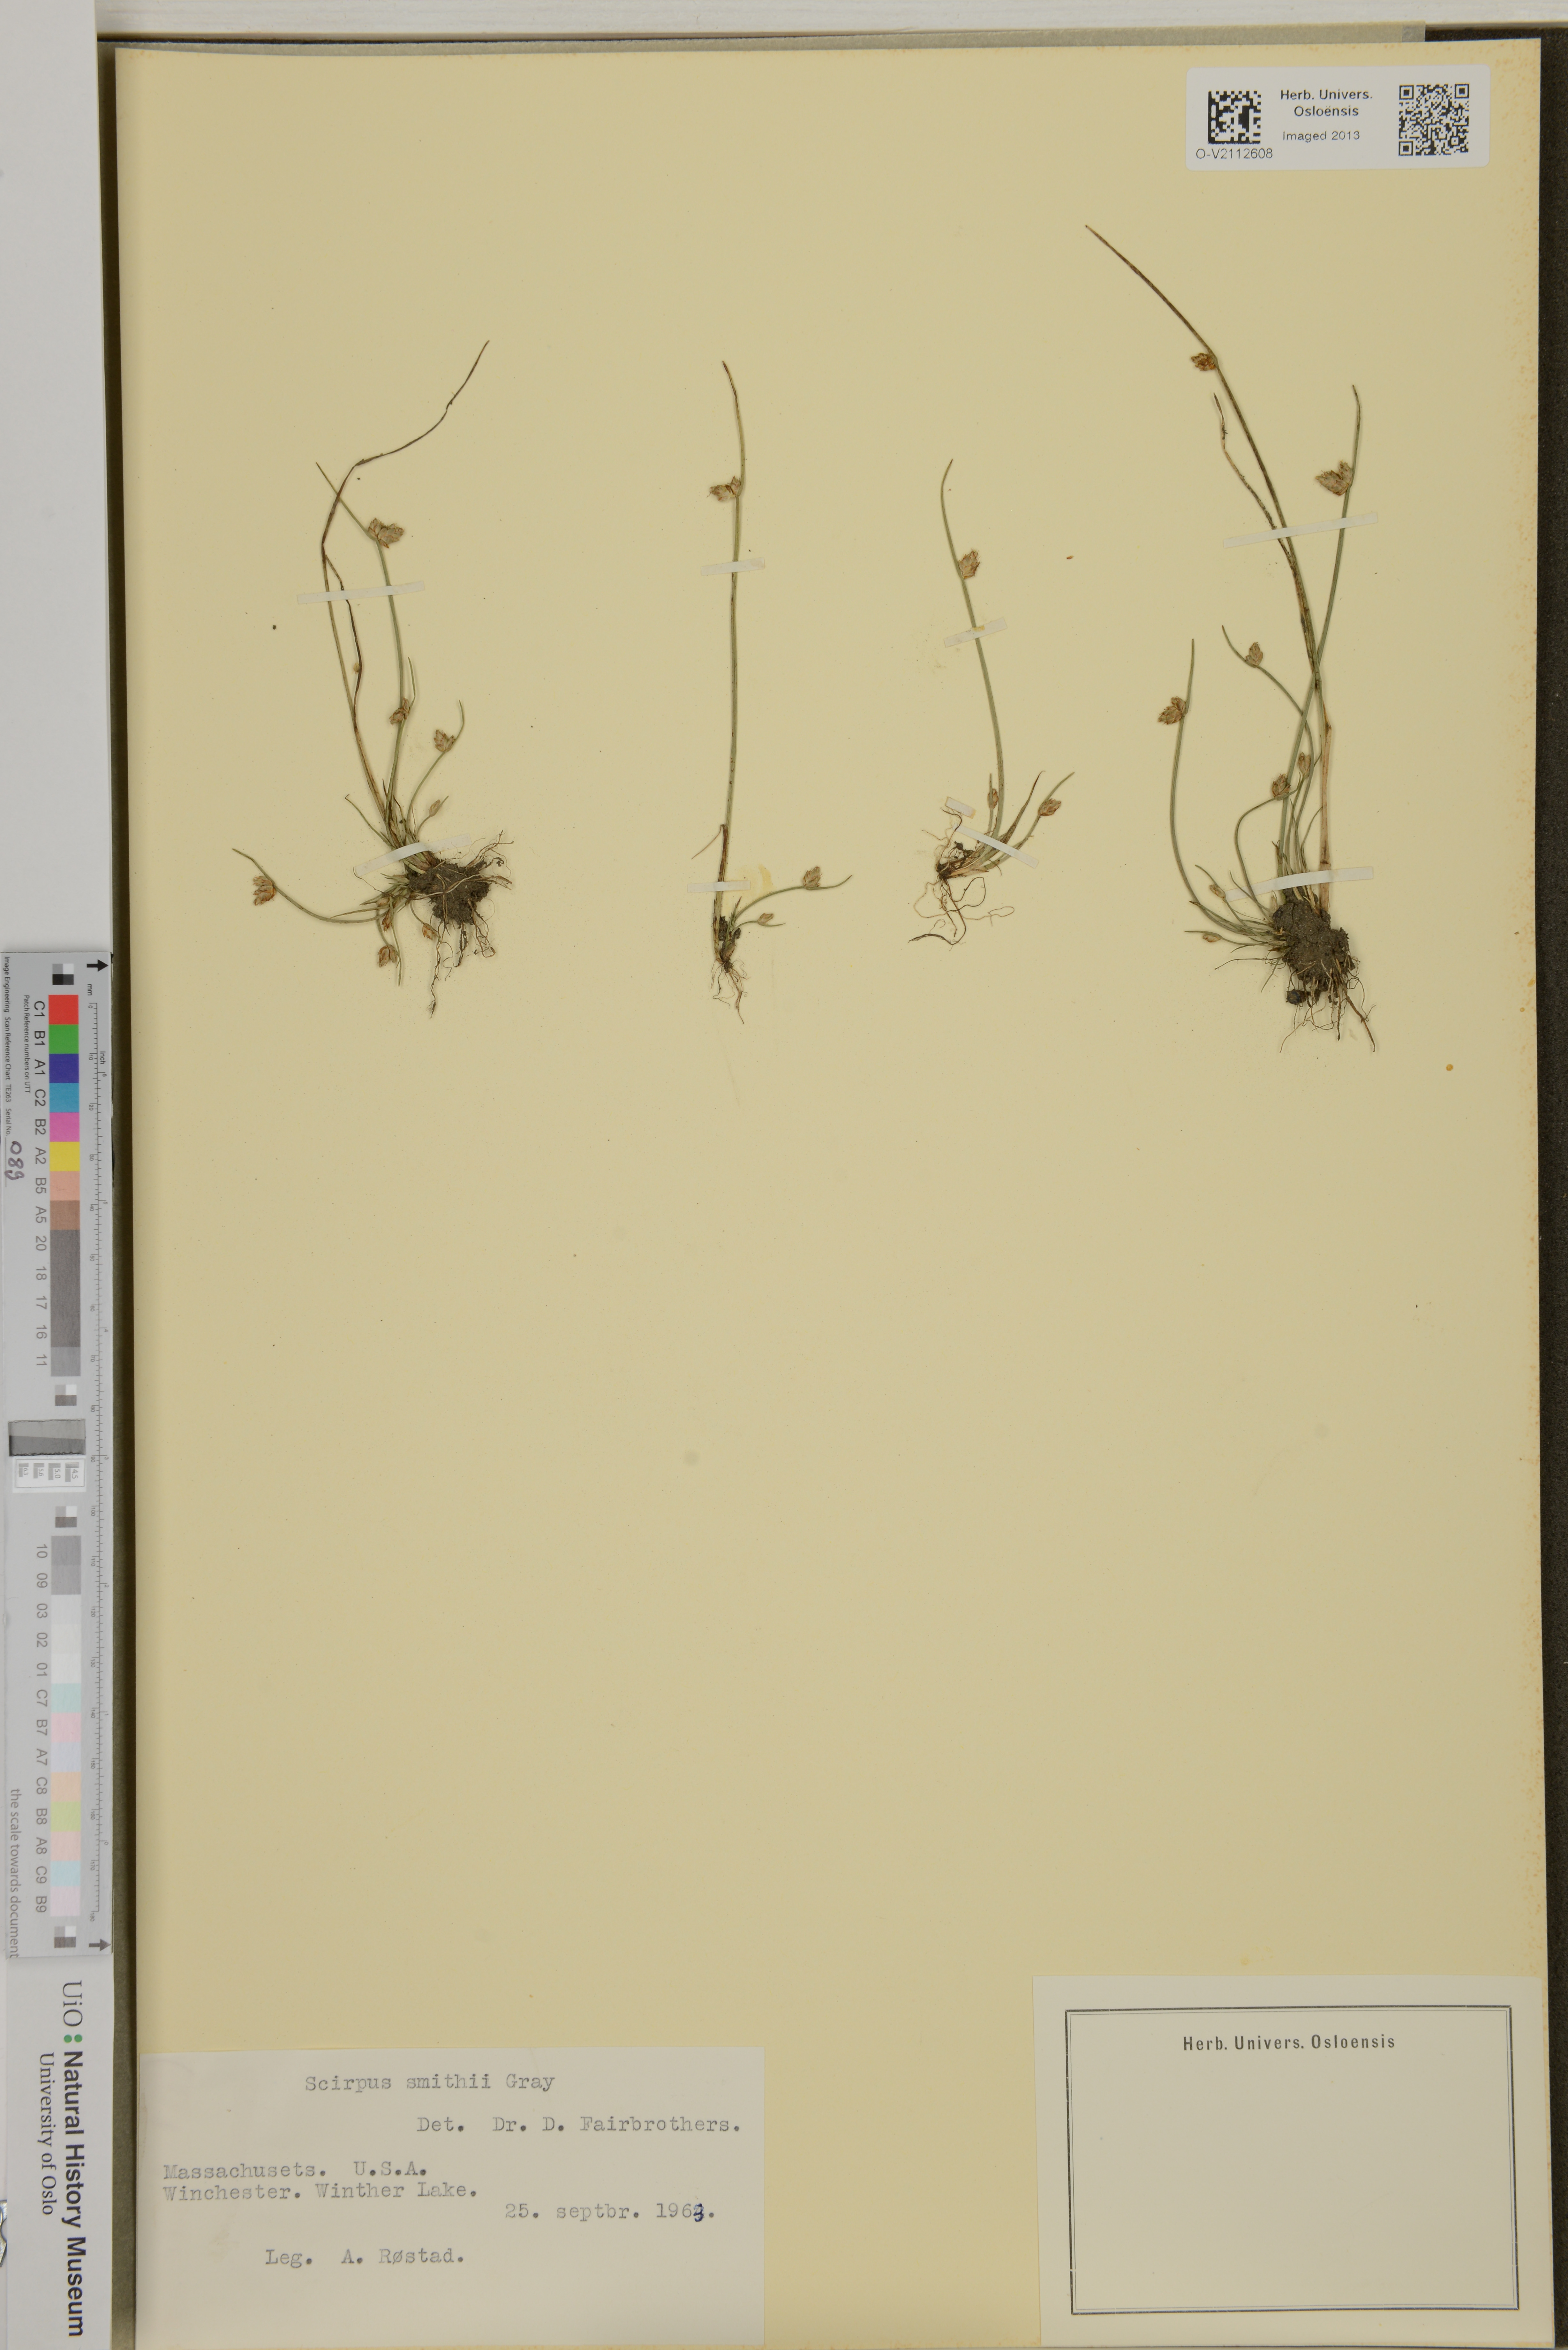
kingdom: Plantae
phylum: Tracheophyta
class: Liliopsida
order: Poales
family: Cyperaceae
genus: Schoenoplectiella
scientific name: Schoenoplectiella smithii
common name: Smith's bulrush
